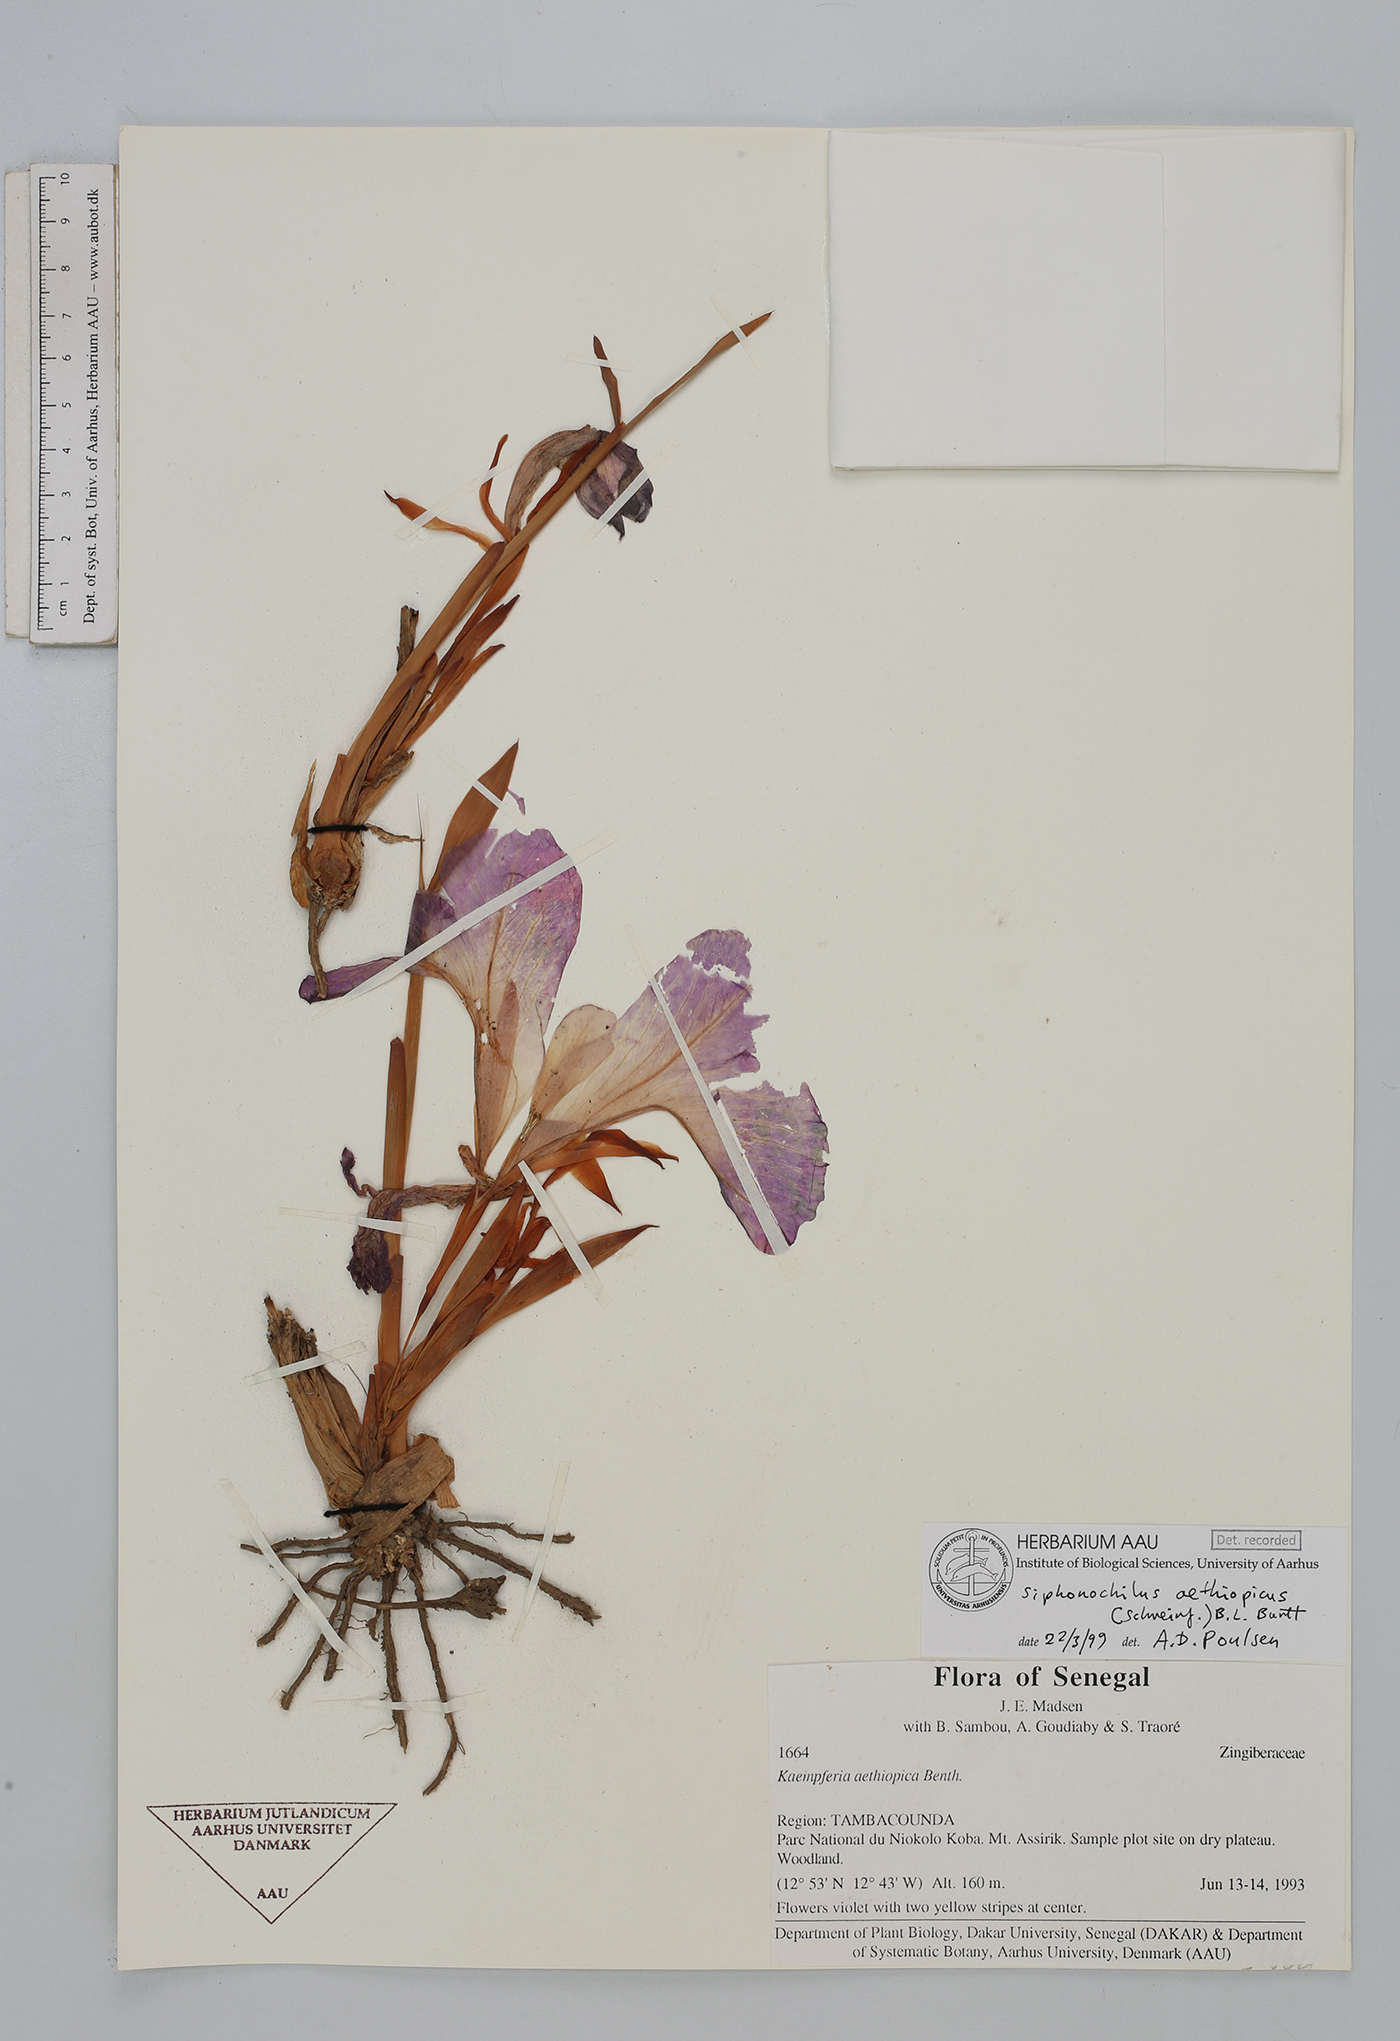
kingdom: Plantae
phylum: Tracheophyta
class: Liliopsida
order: Zingiberales
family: Zingiberaceae
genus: Siphonochilus
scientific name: Siphonochilus aethiopicus
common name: African-ginger
